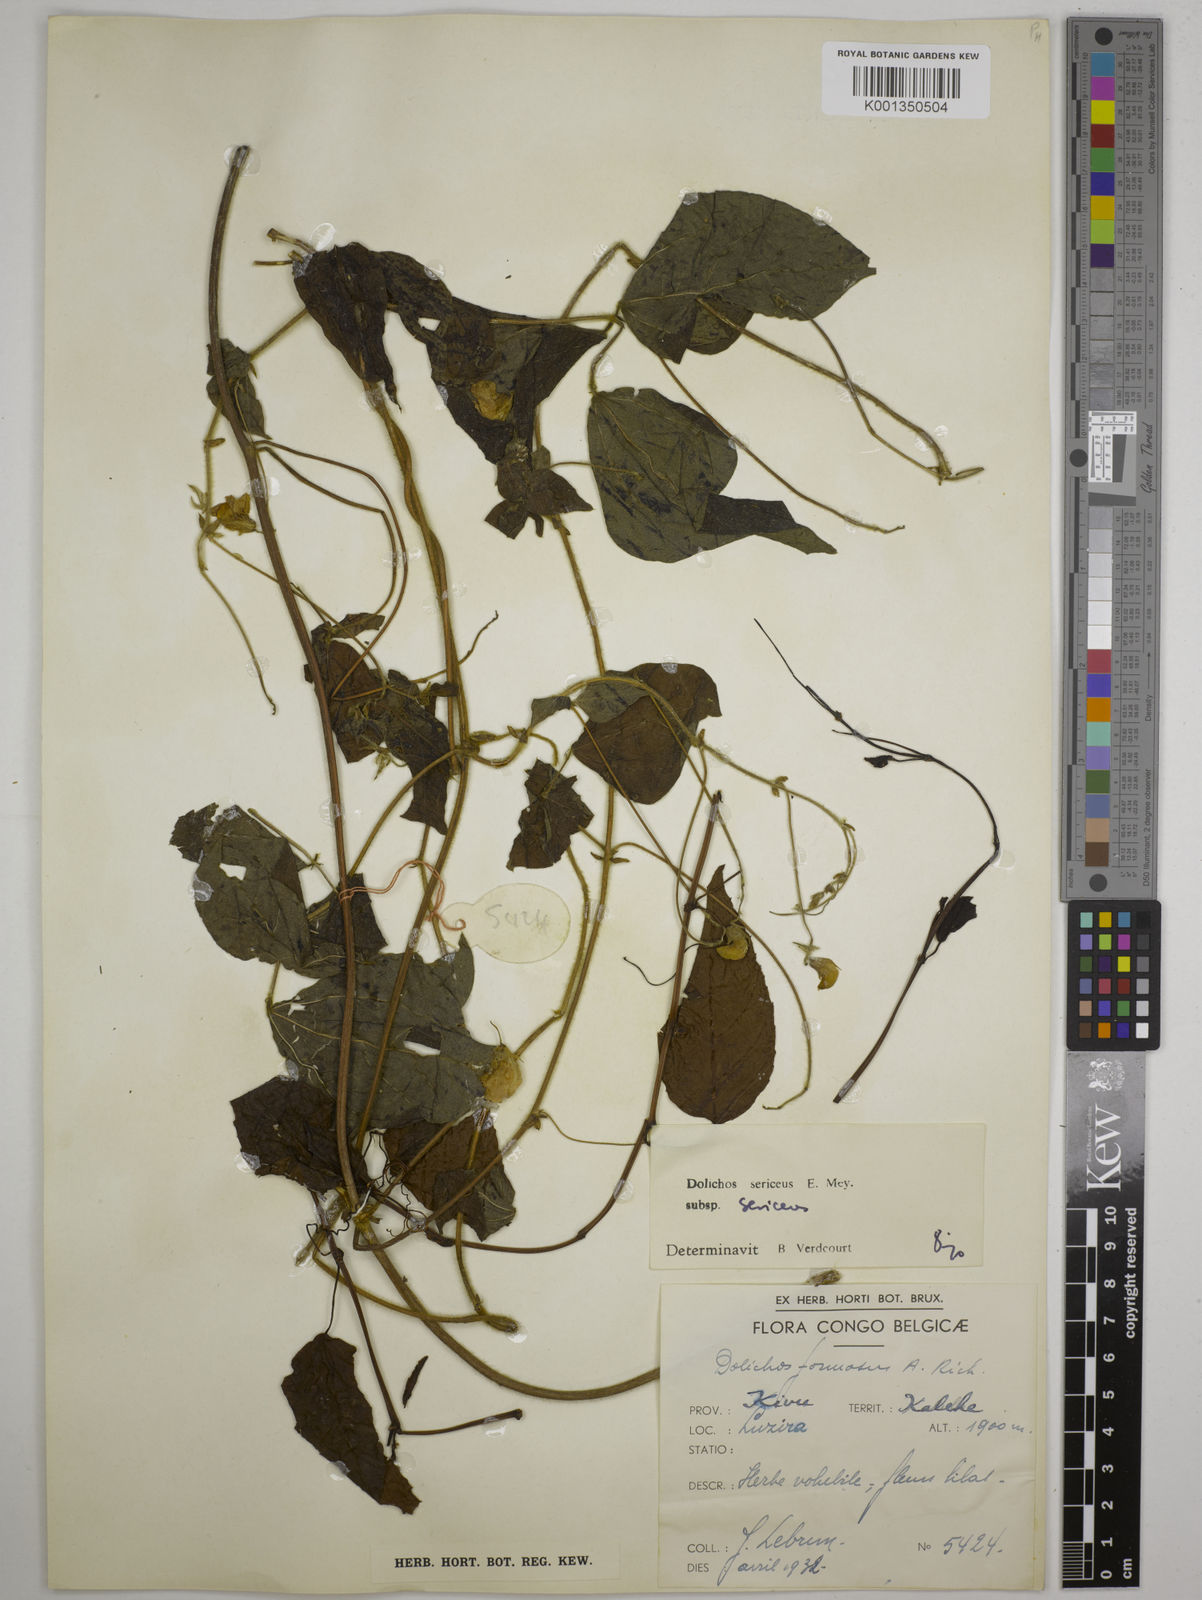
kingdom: Plantae
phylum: Tracheophyta
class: Magnoliopsida
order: Fabales
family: Fabaceae
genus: Dolichos
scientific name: Dolichos sericeus
